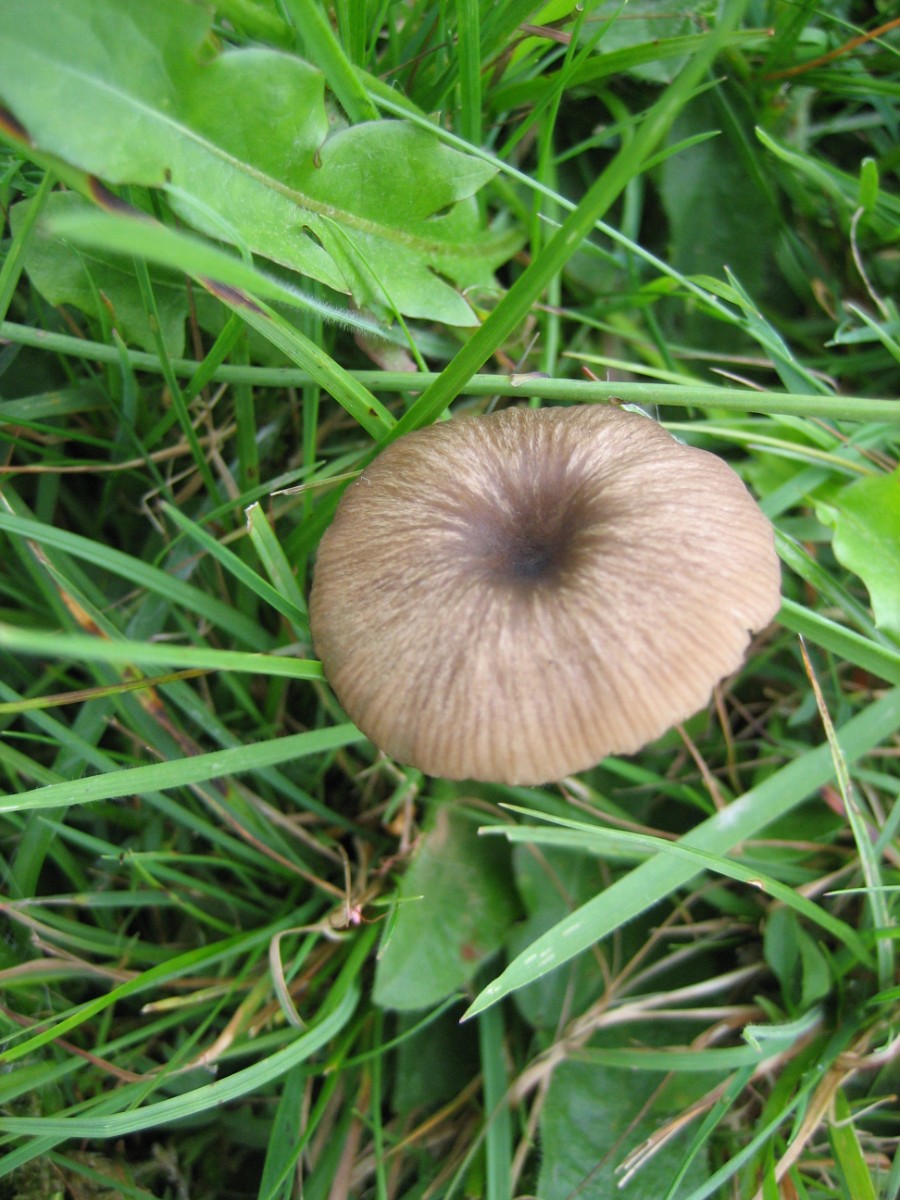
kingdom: Fungi
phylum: Basidiomycota
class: Agaricomycetes
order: Agaricales
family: Entolomataceae
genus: Entoloma
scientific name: Entoloma
